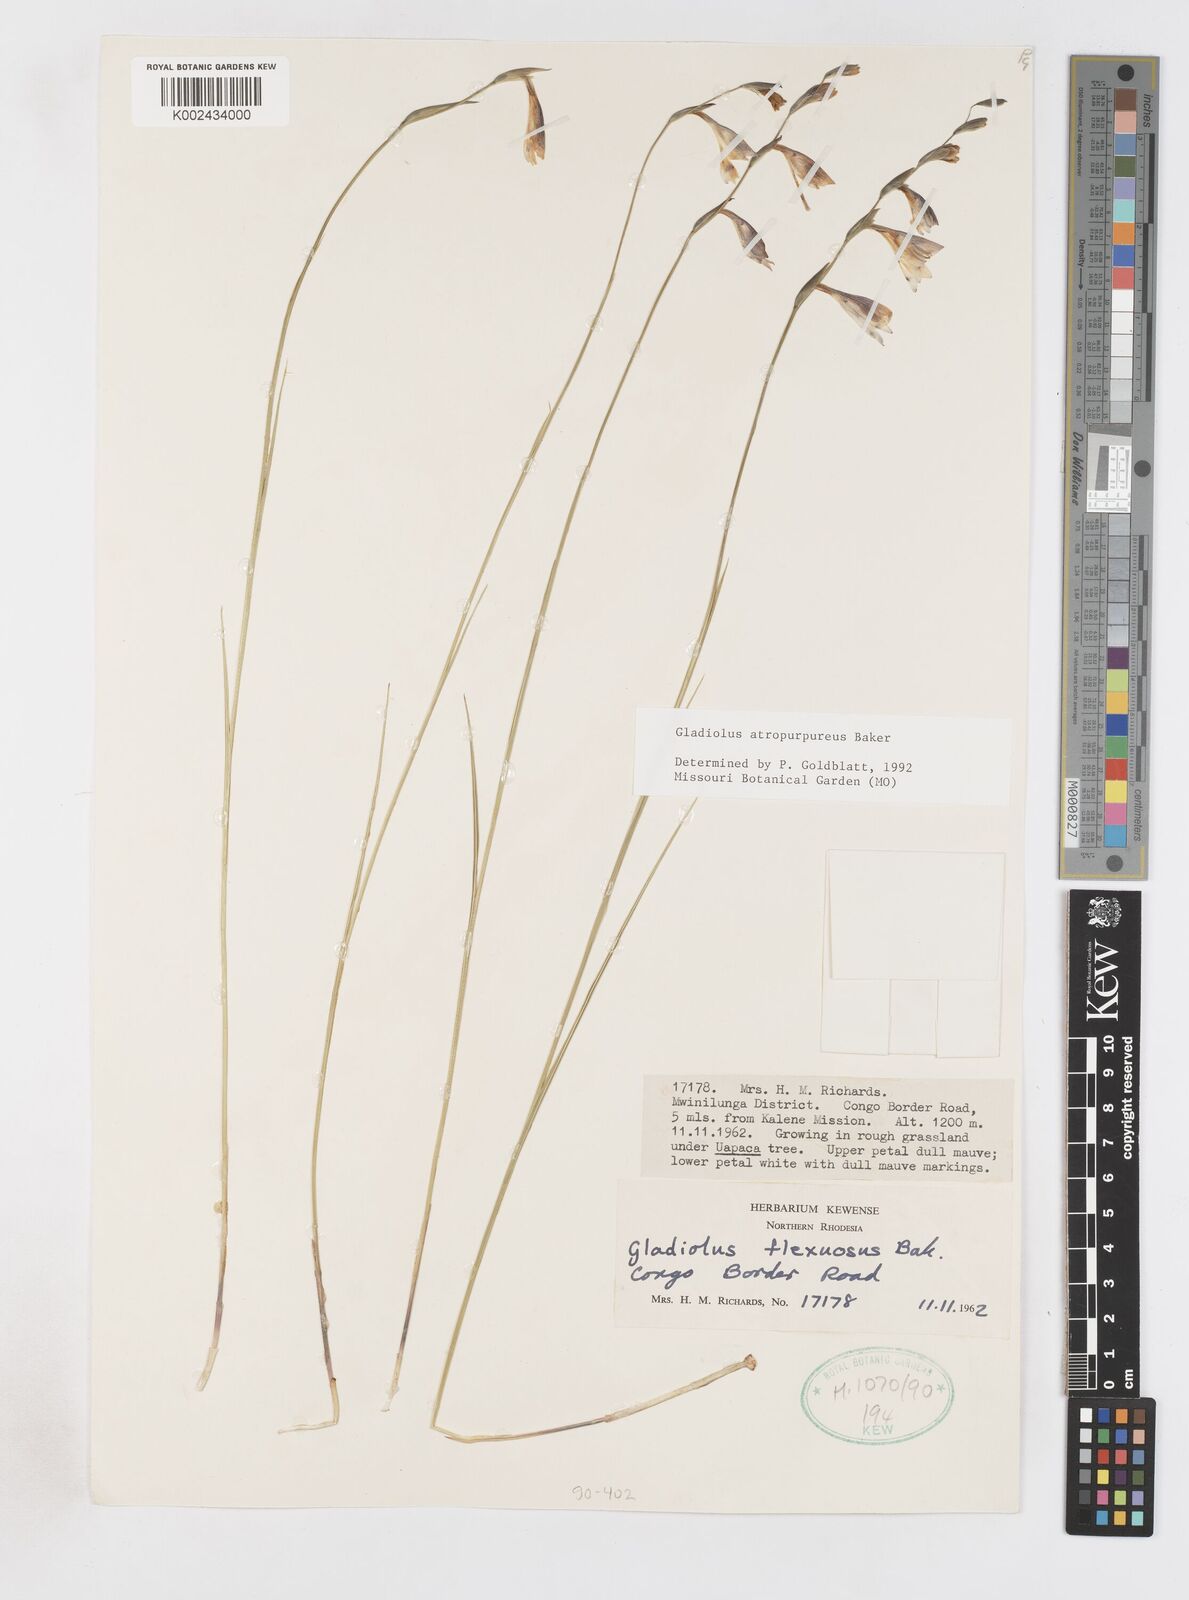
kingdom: Plantae
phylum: Tracheophyta
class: Liliopsida
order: Asparagales
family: Iridaceae
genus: Gladiolus
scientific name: Gladiolus atropurpureus
